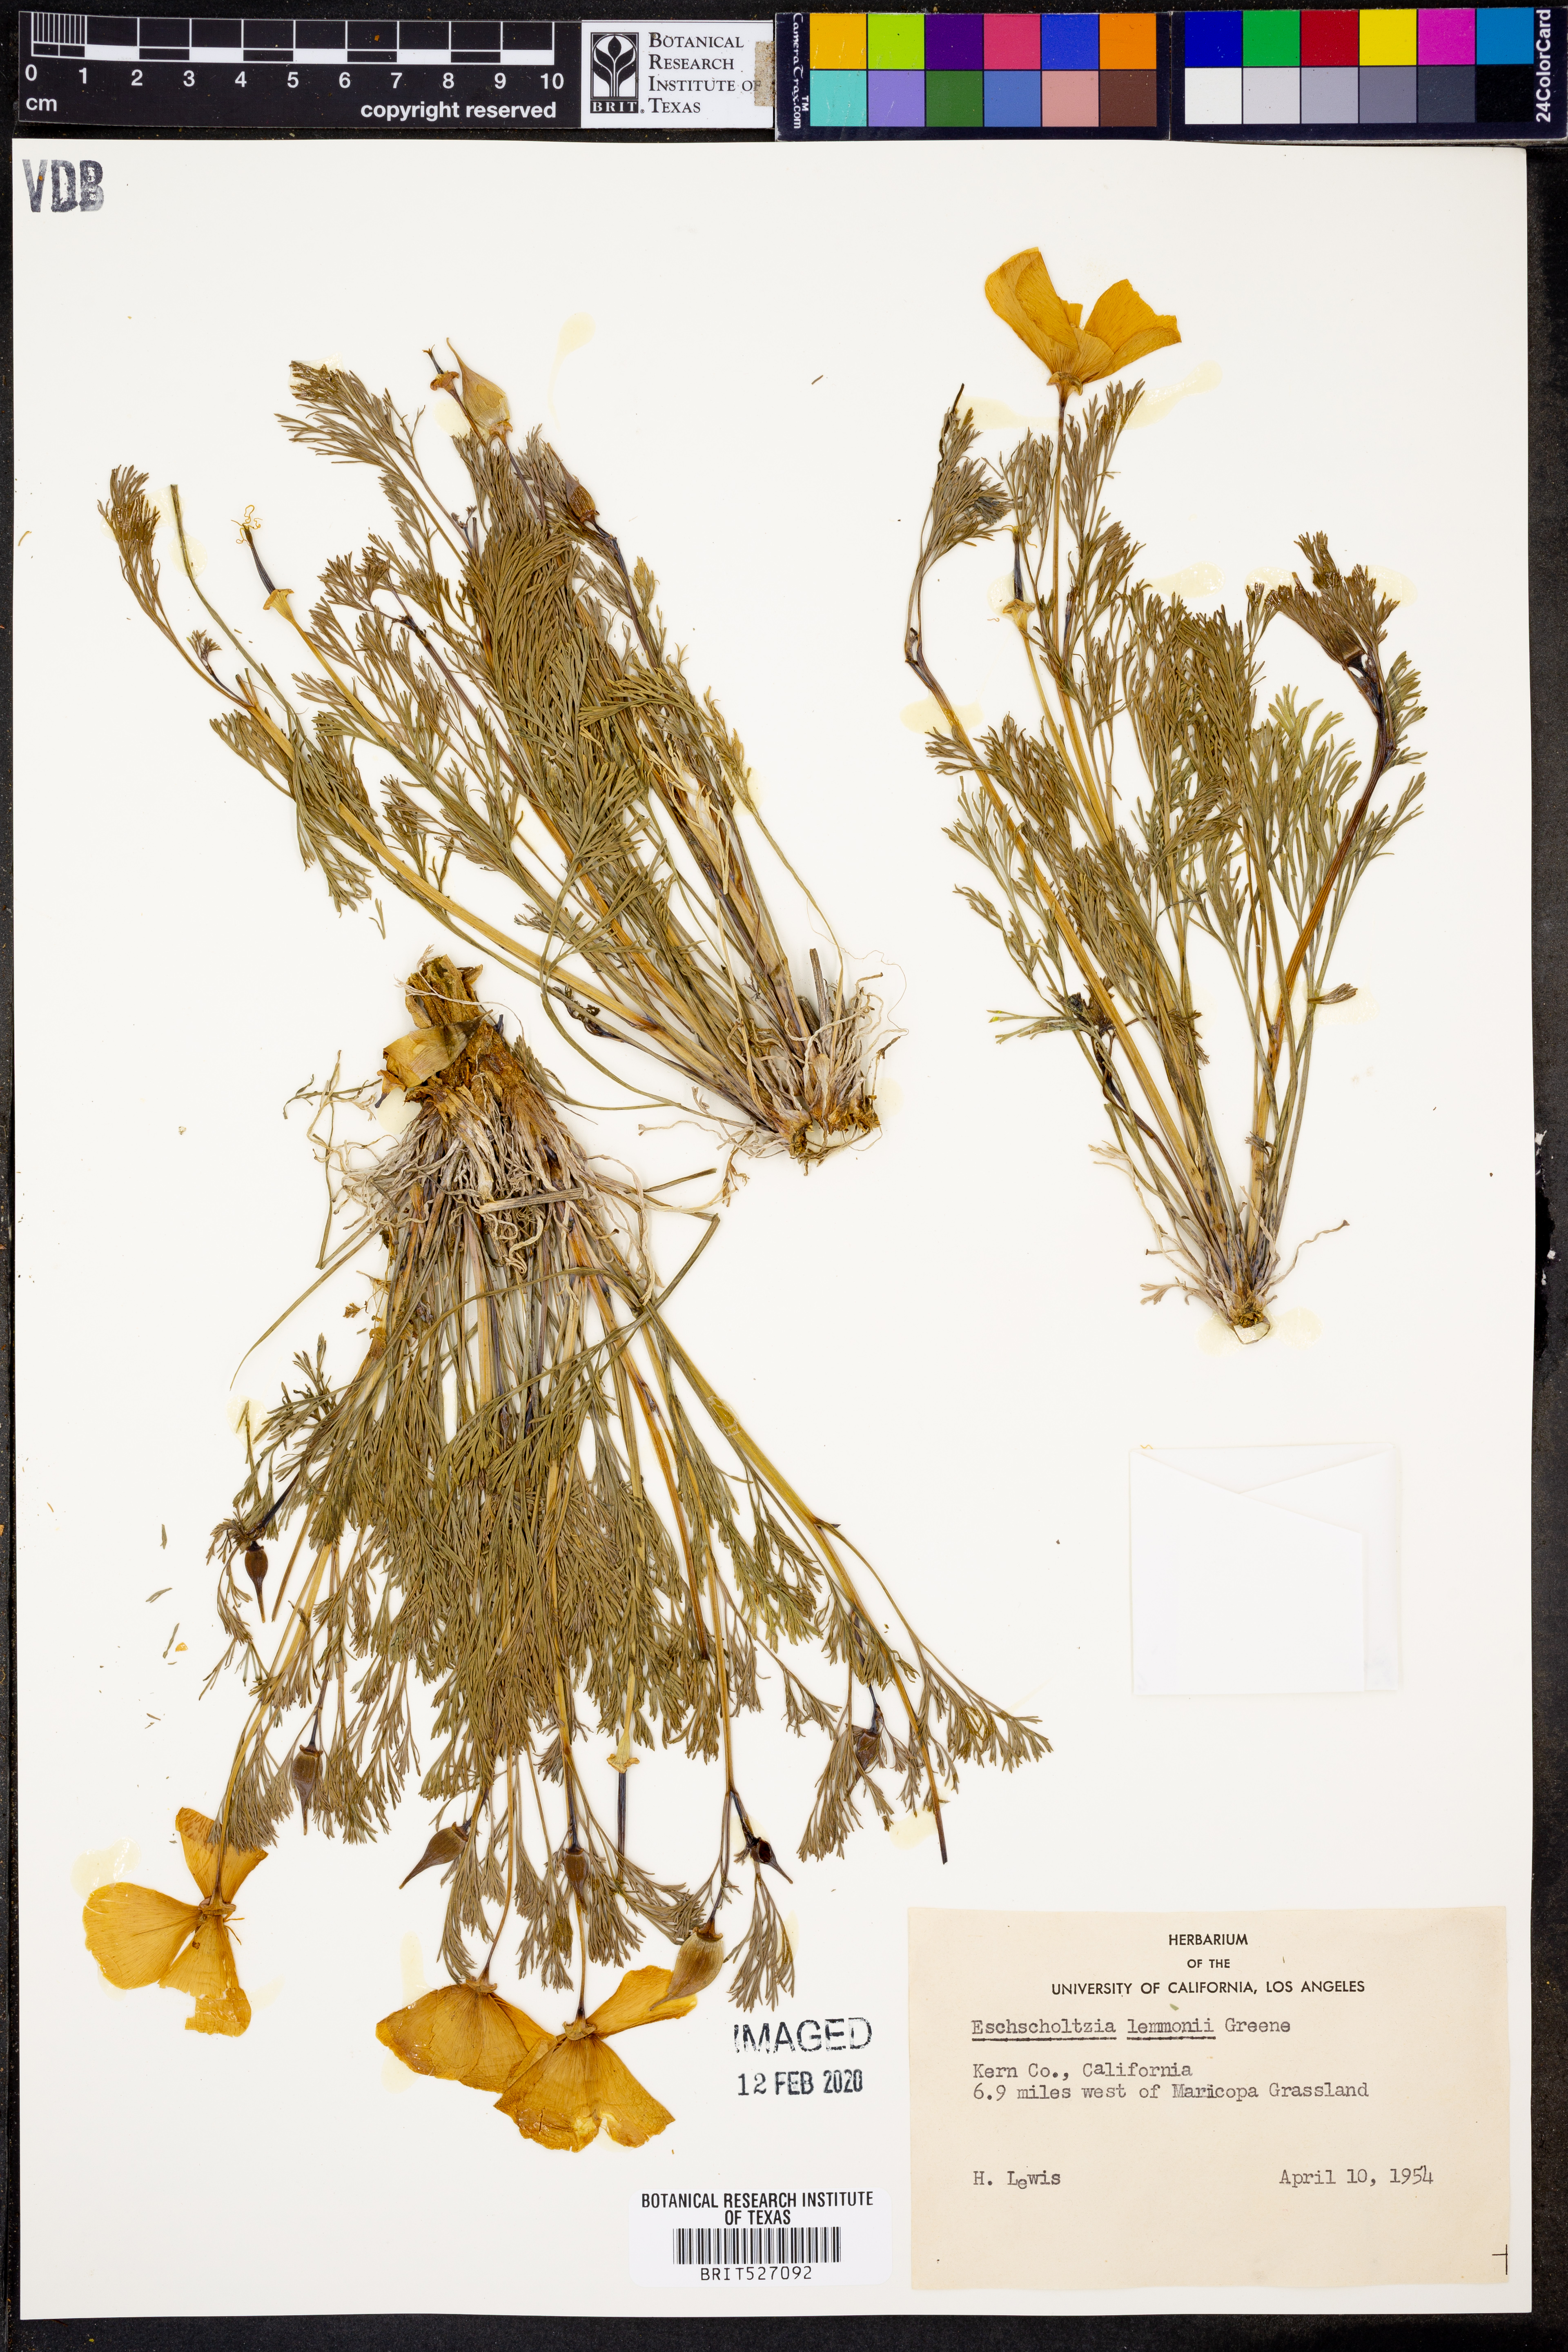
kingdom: Plantae
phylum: Tracheophyta
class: Magnoliopsida
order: Ranunculales
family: Papaveraceae
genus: Eschscholzia
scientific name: Eschscholzia lemmonii
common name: Lemmon's poppy
